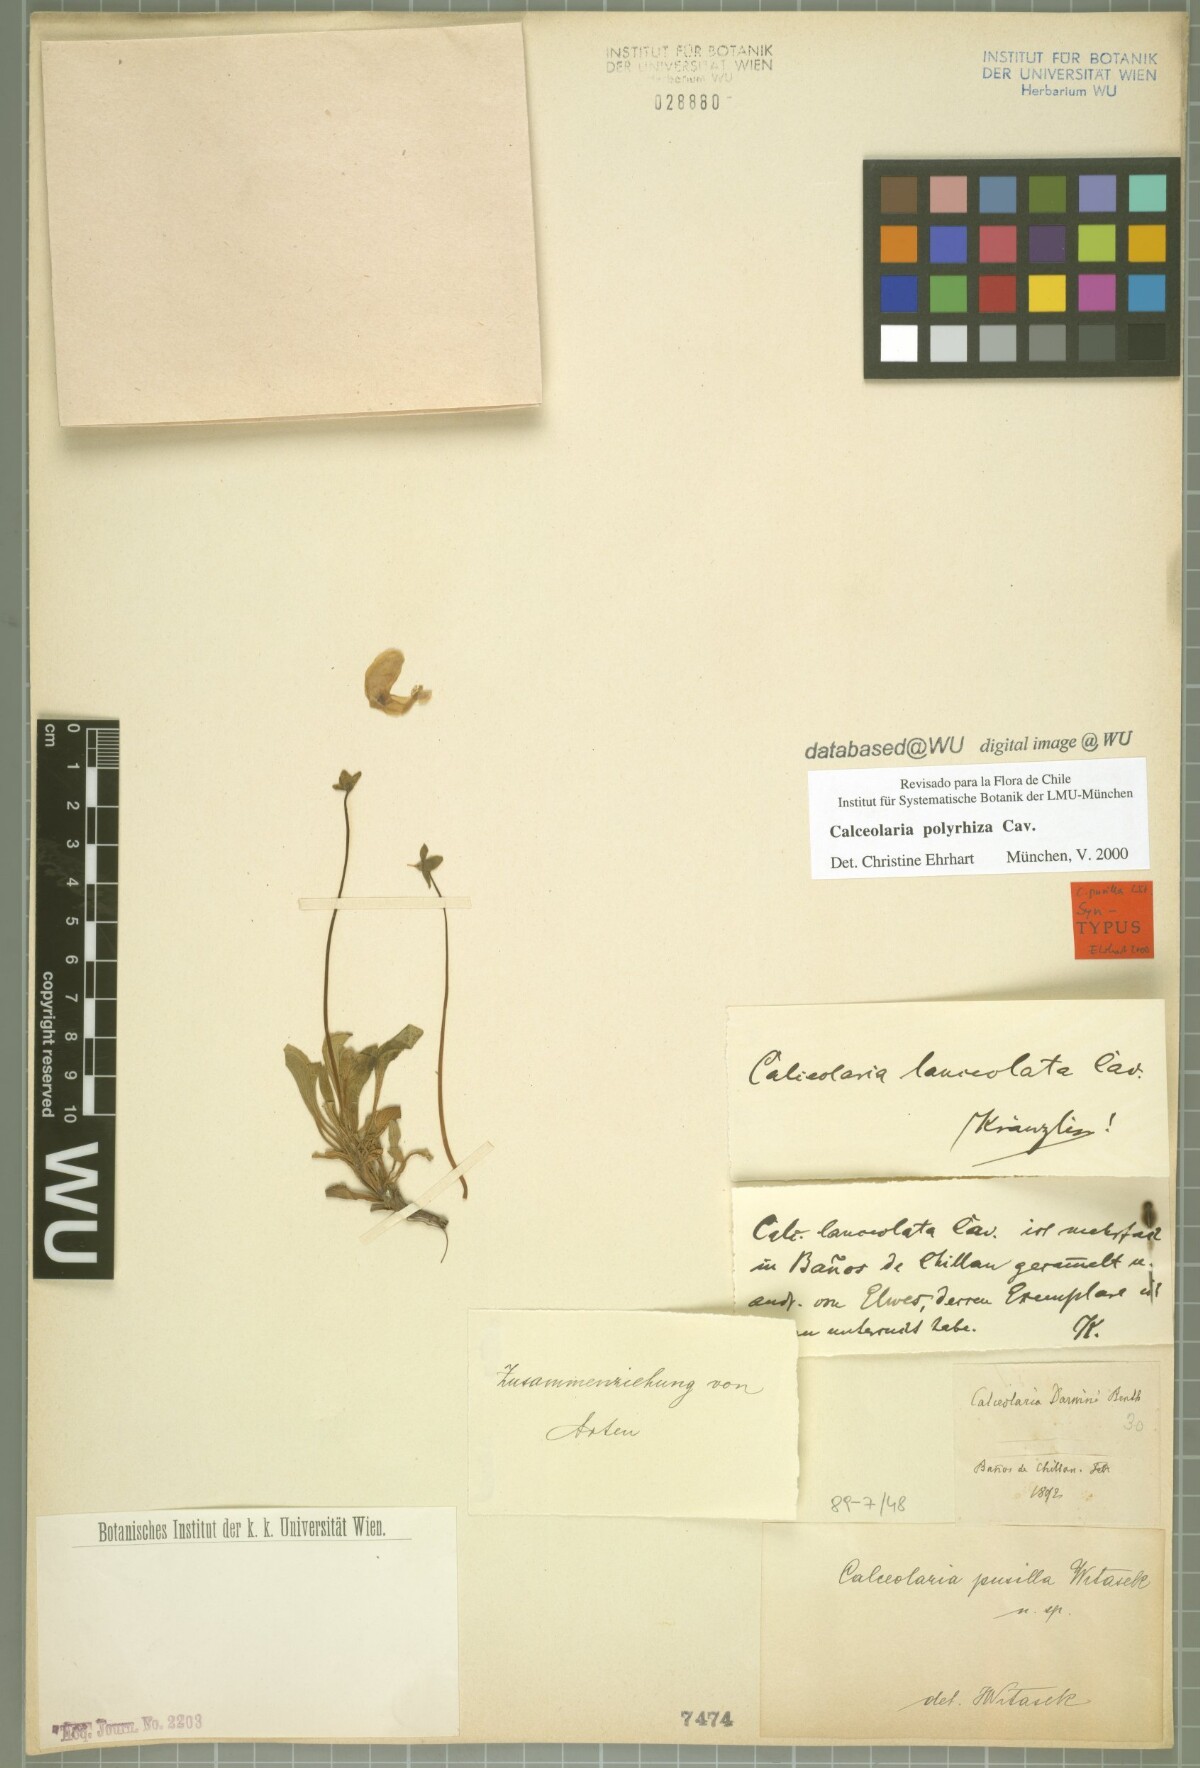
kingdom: Plantae
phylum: Tracheophyta
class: Magnoliopsida
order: Lamiales
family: Calceolariaceae
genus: Calceolaria
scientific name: Calceolaria polyrhiza
